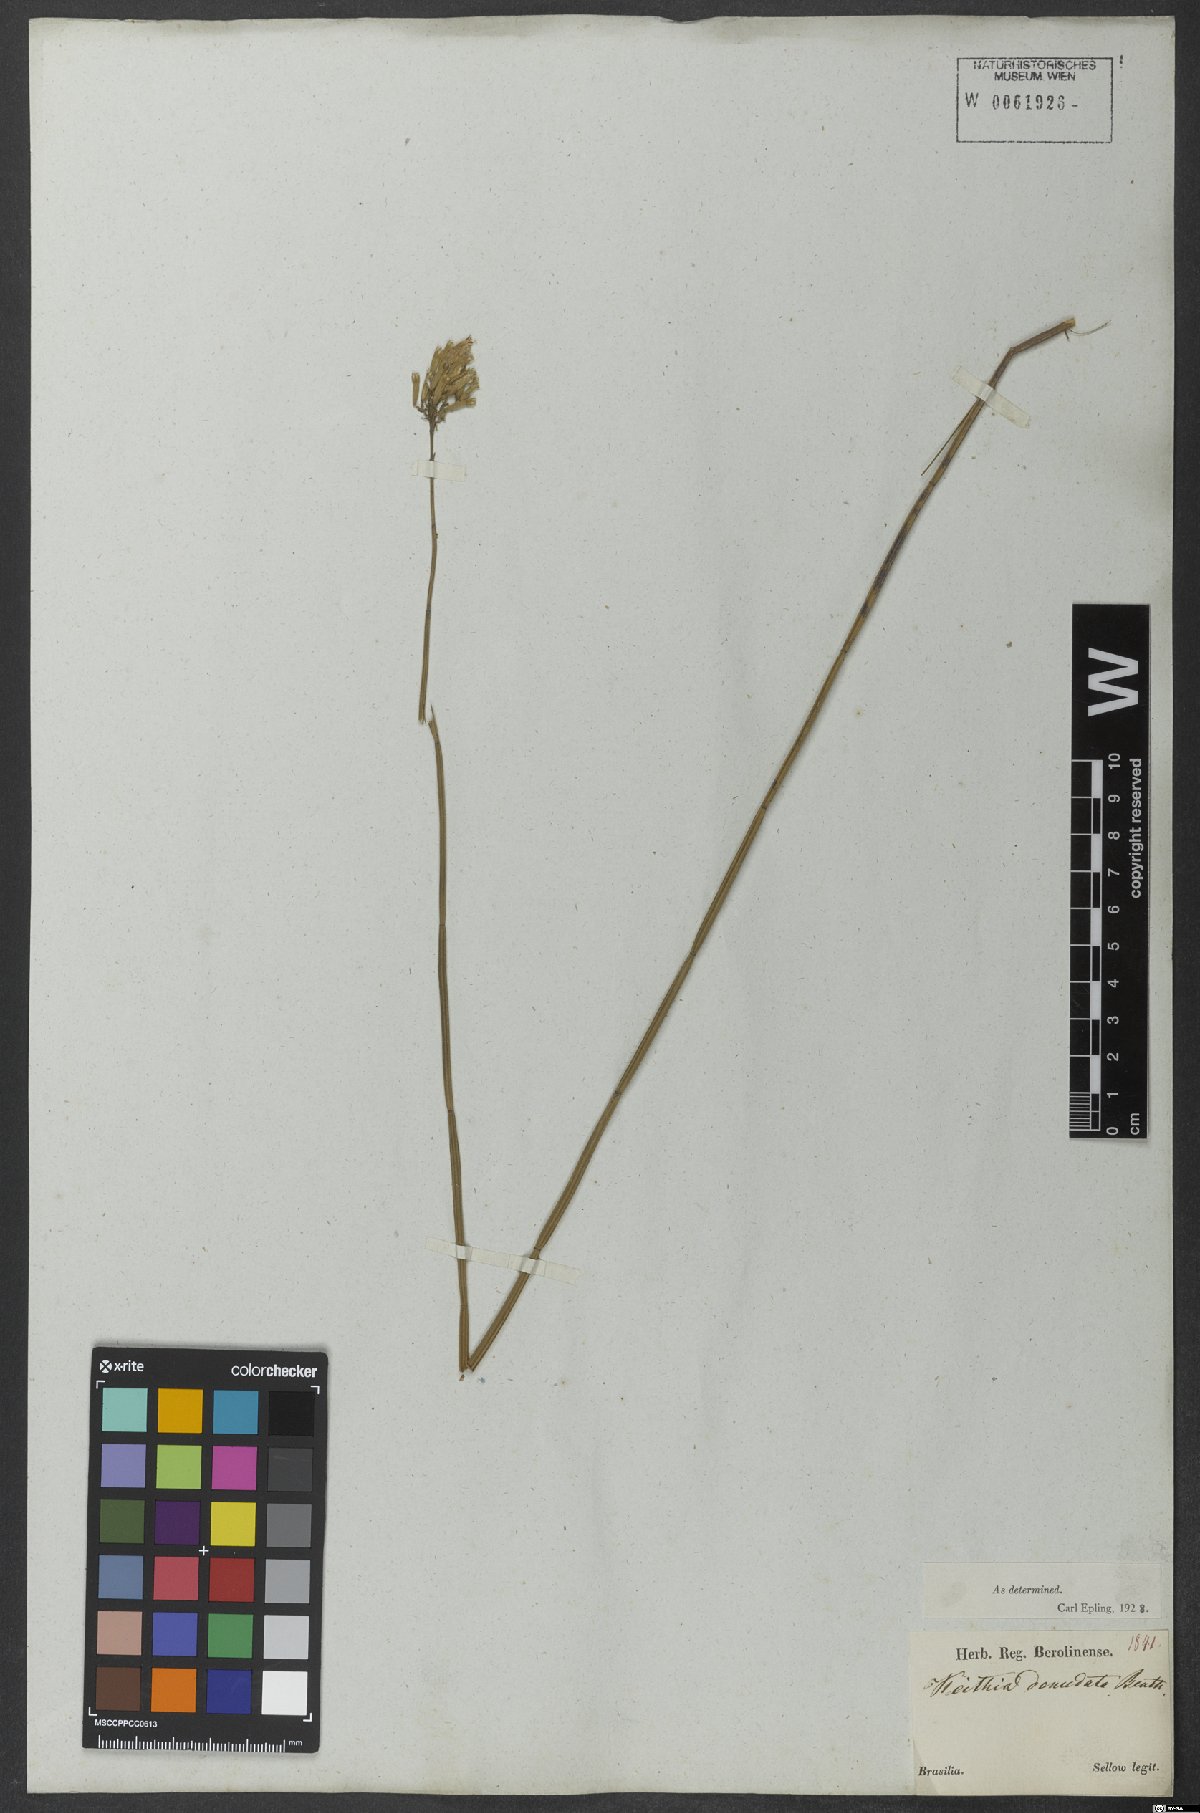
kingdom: Plantae
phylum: Tracheophyta
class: Magnoliopsida
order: Lamiales
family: Lamiaceae
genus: Rhabdocaulon
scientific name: Rhabdocaulon denudatum
